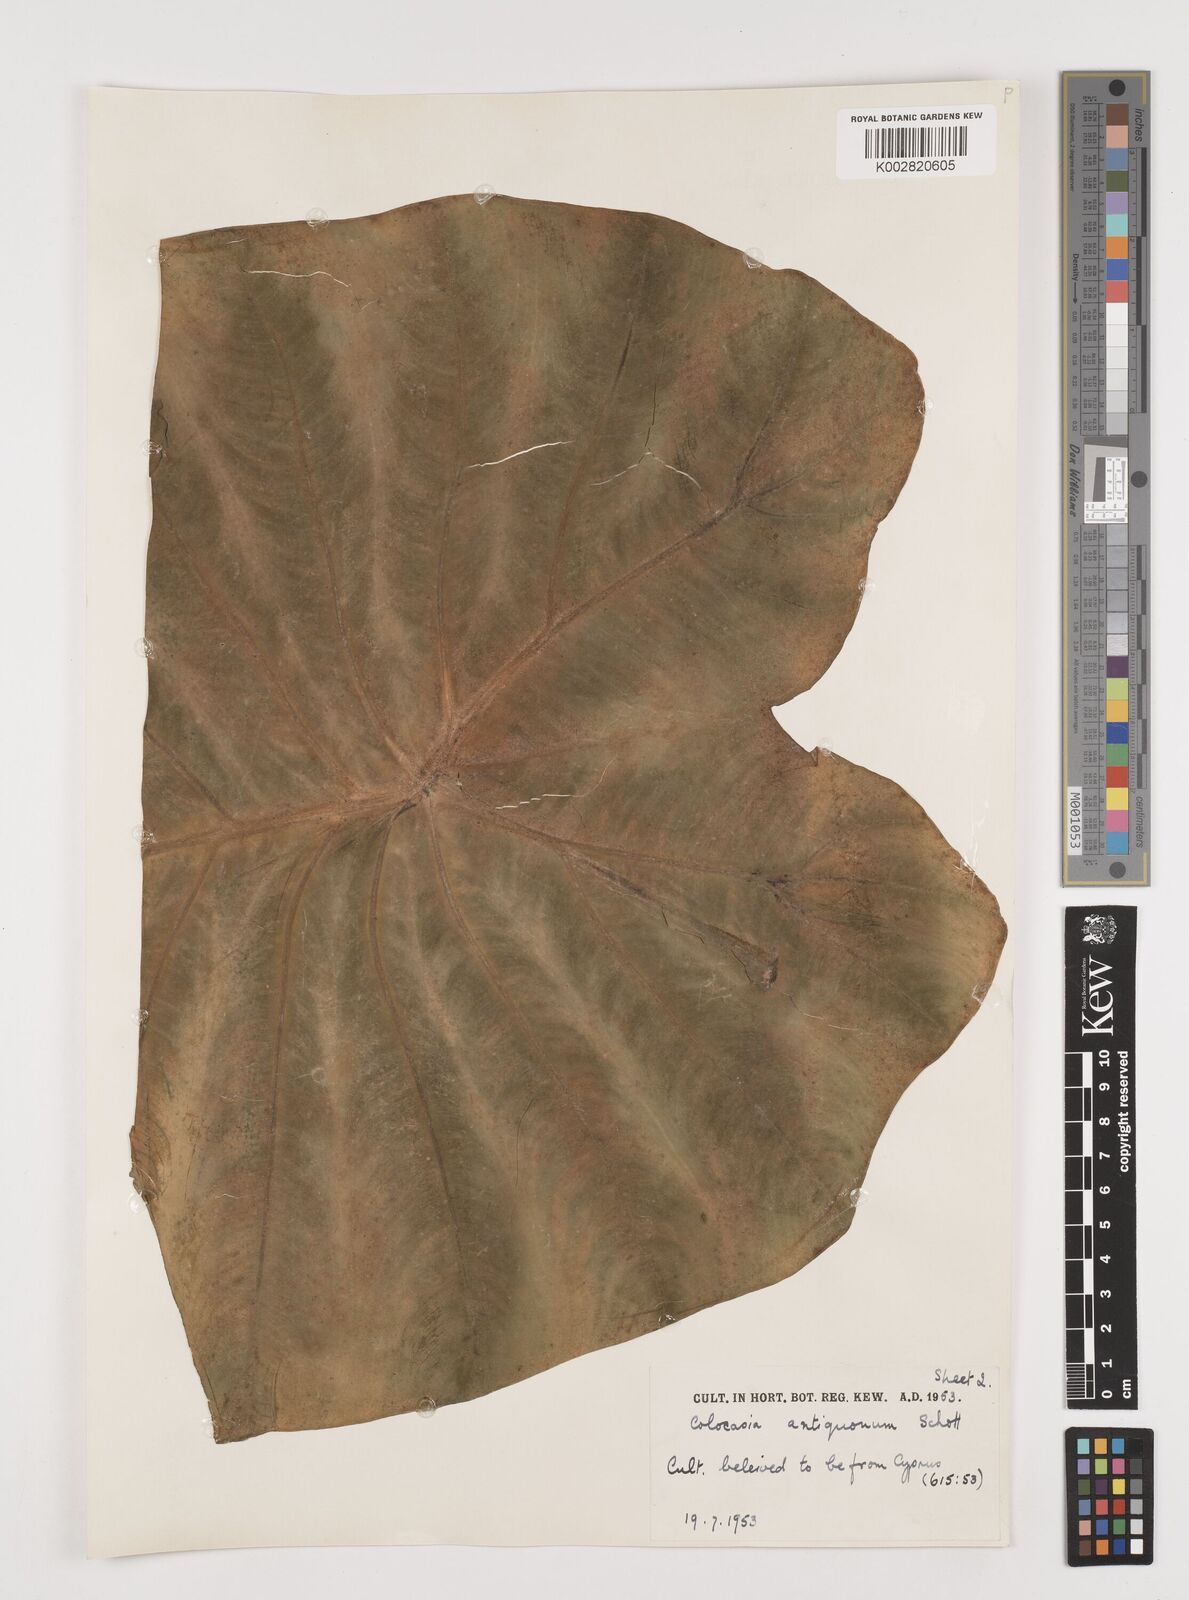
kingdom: Plantae
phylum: Tracheophyta
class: Liliopsida
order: Alismatales
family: Araceae
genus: Colocasia
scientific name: Colocasia esculenta
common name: Taro
